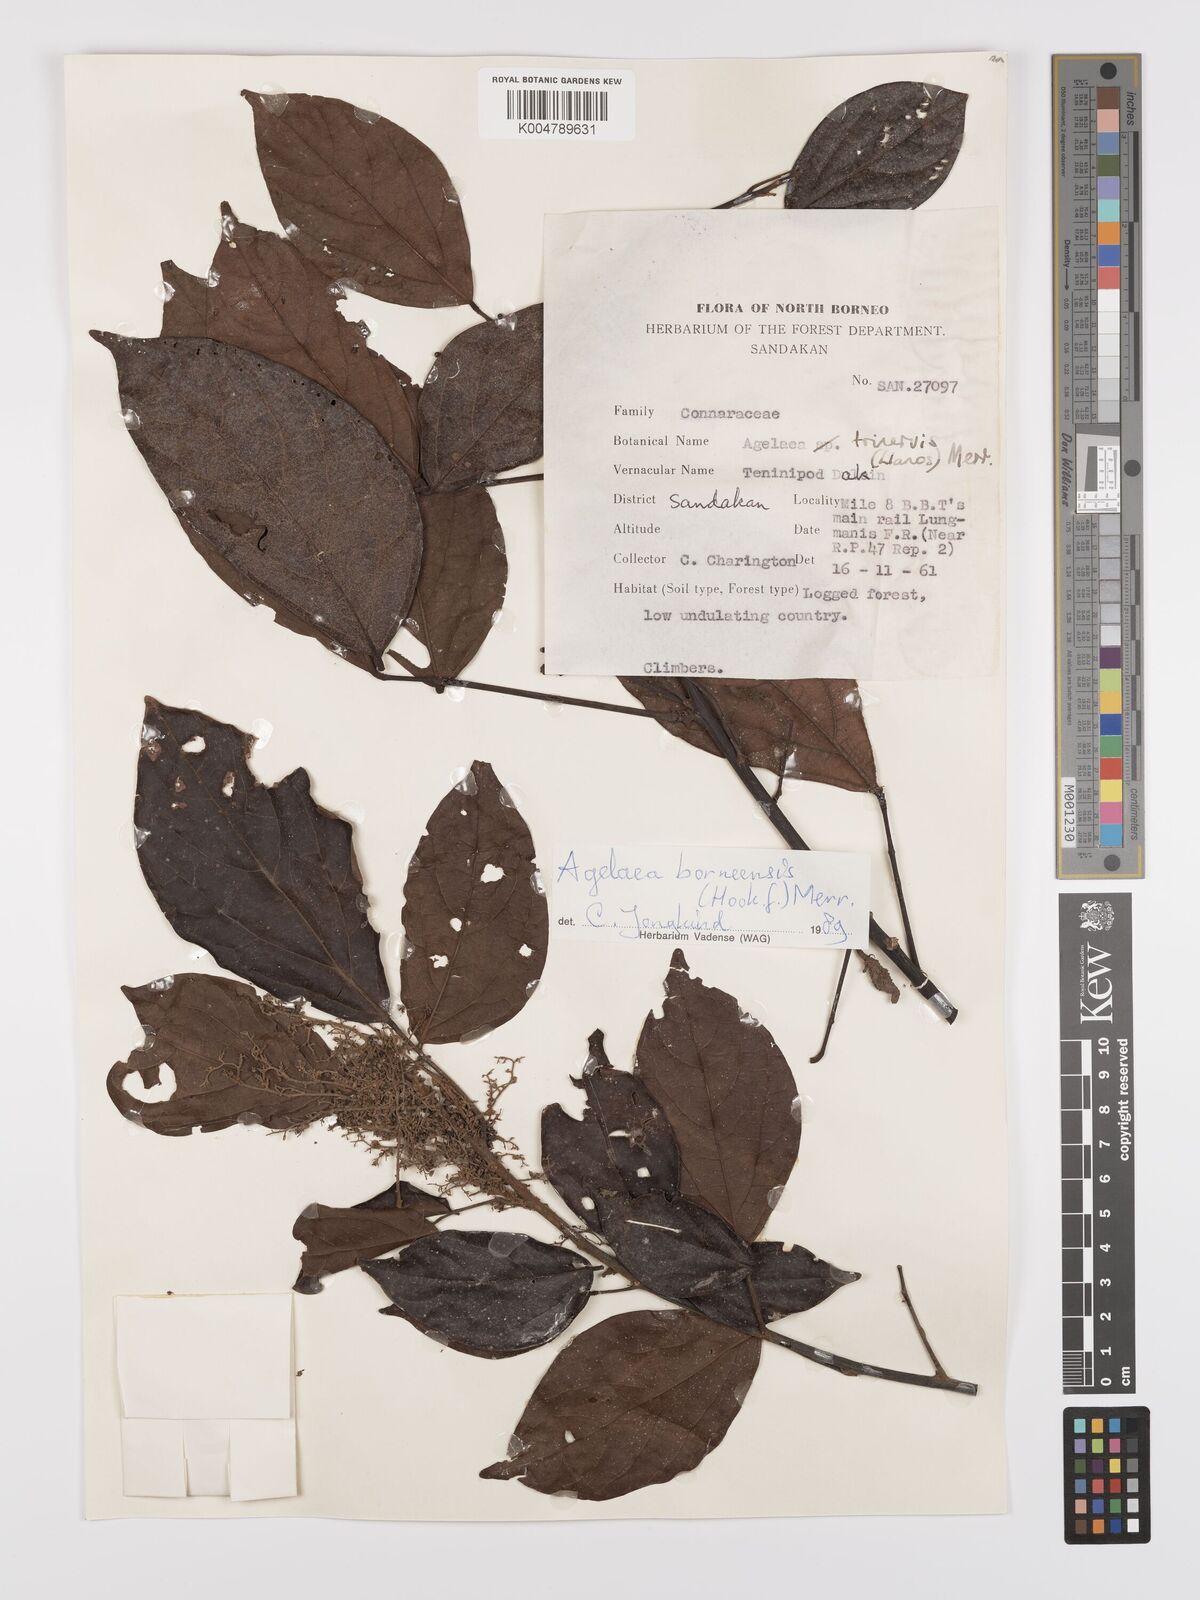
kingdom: Plantae
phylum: Tracheophyta
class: Magnoliopsida
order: Oxalidales
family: Connaraceae
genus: Agelaea
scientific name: Agelaea borneensis
